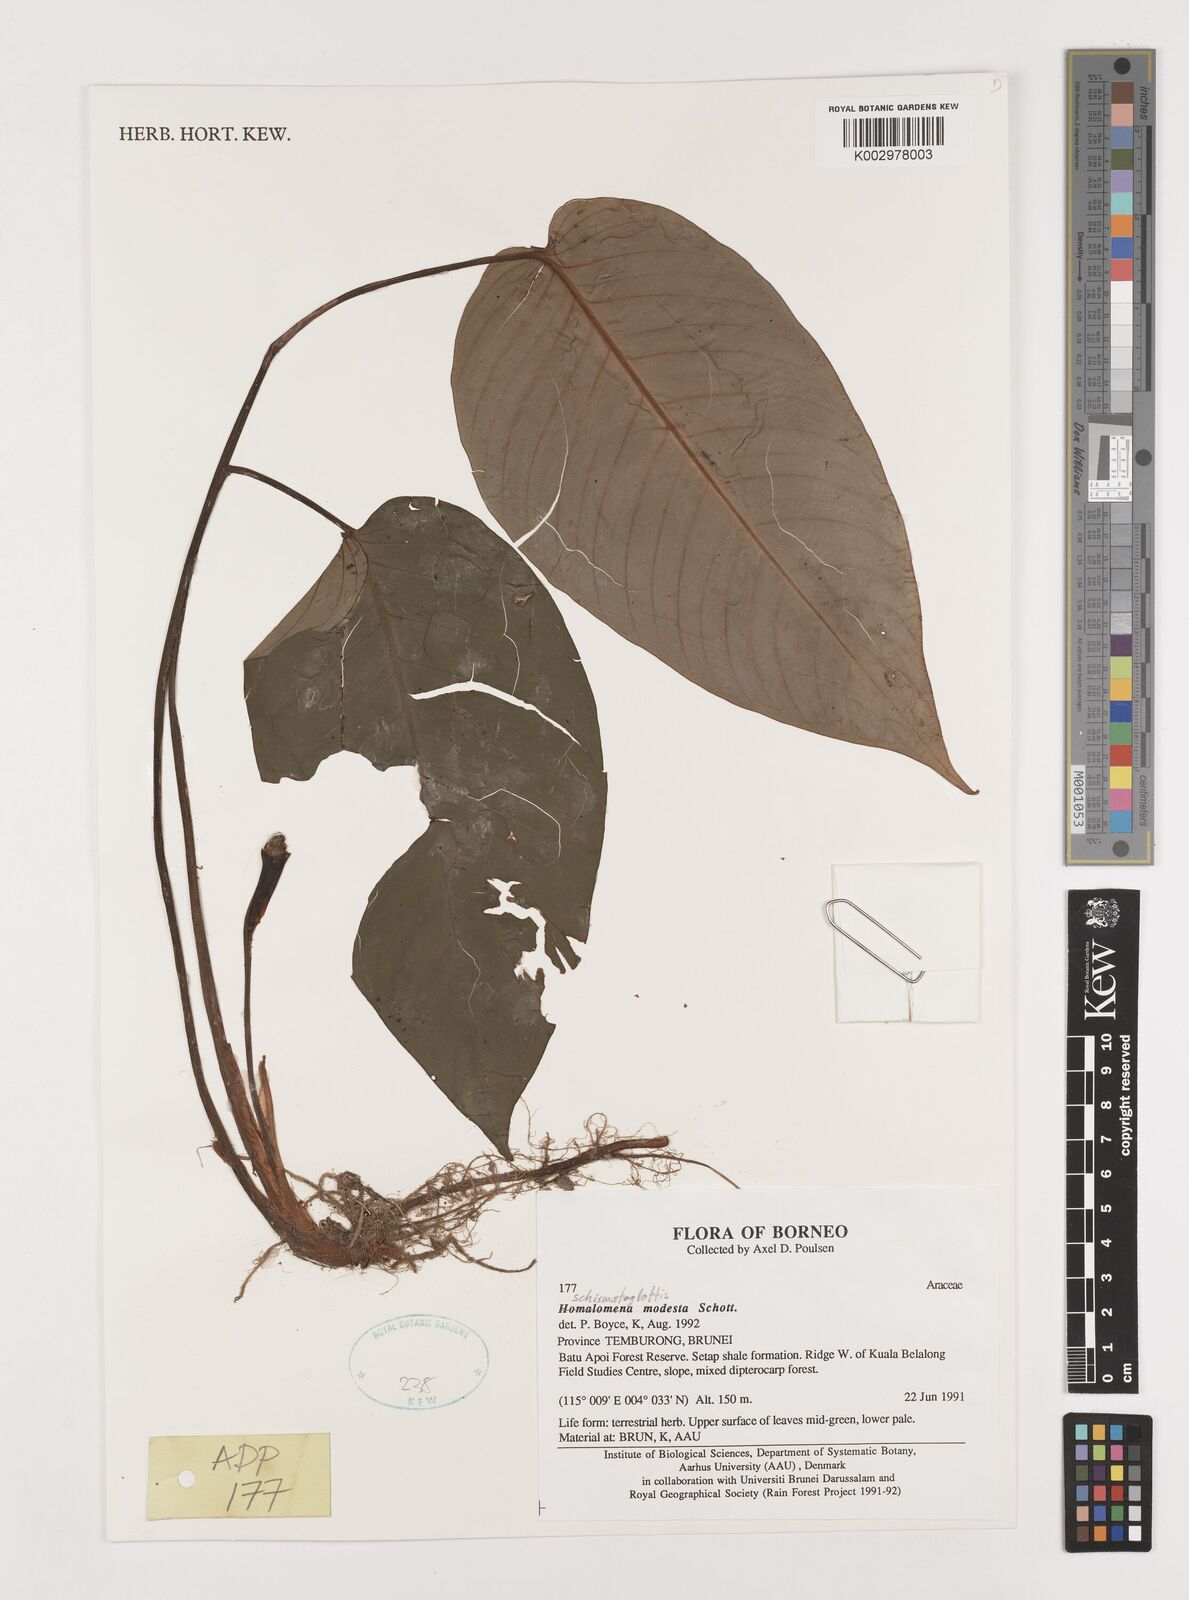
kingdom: Plantae
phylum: Tracheophyta
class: Liliopsida
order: Alismatales
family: Araceae
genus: Schismatoglottis
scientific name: Schismatoglottis modesta
